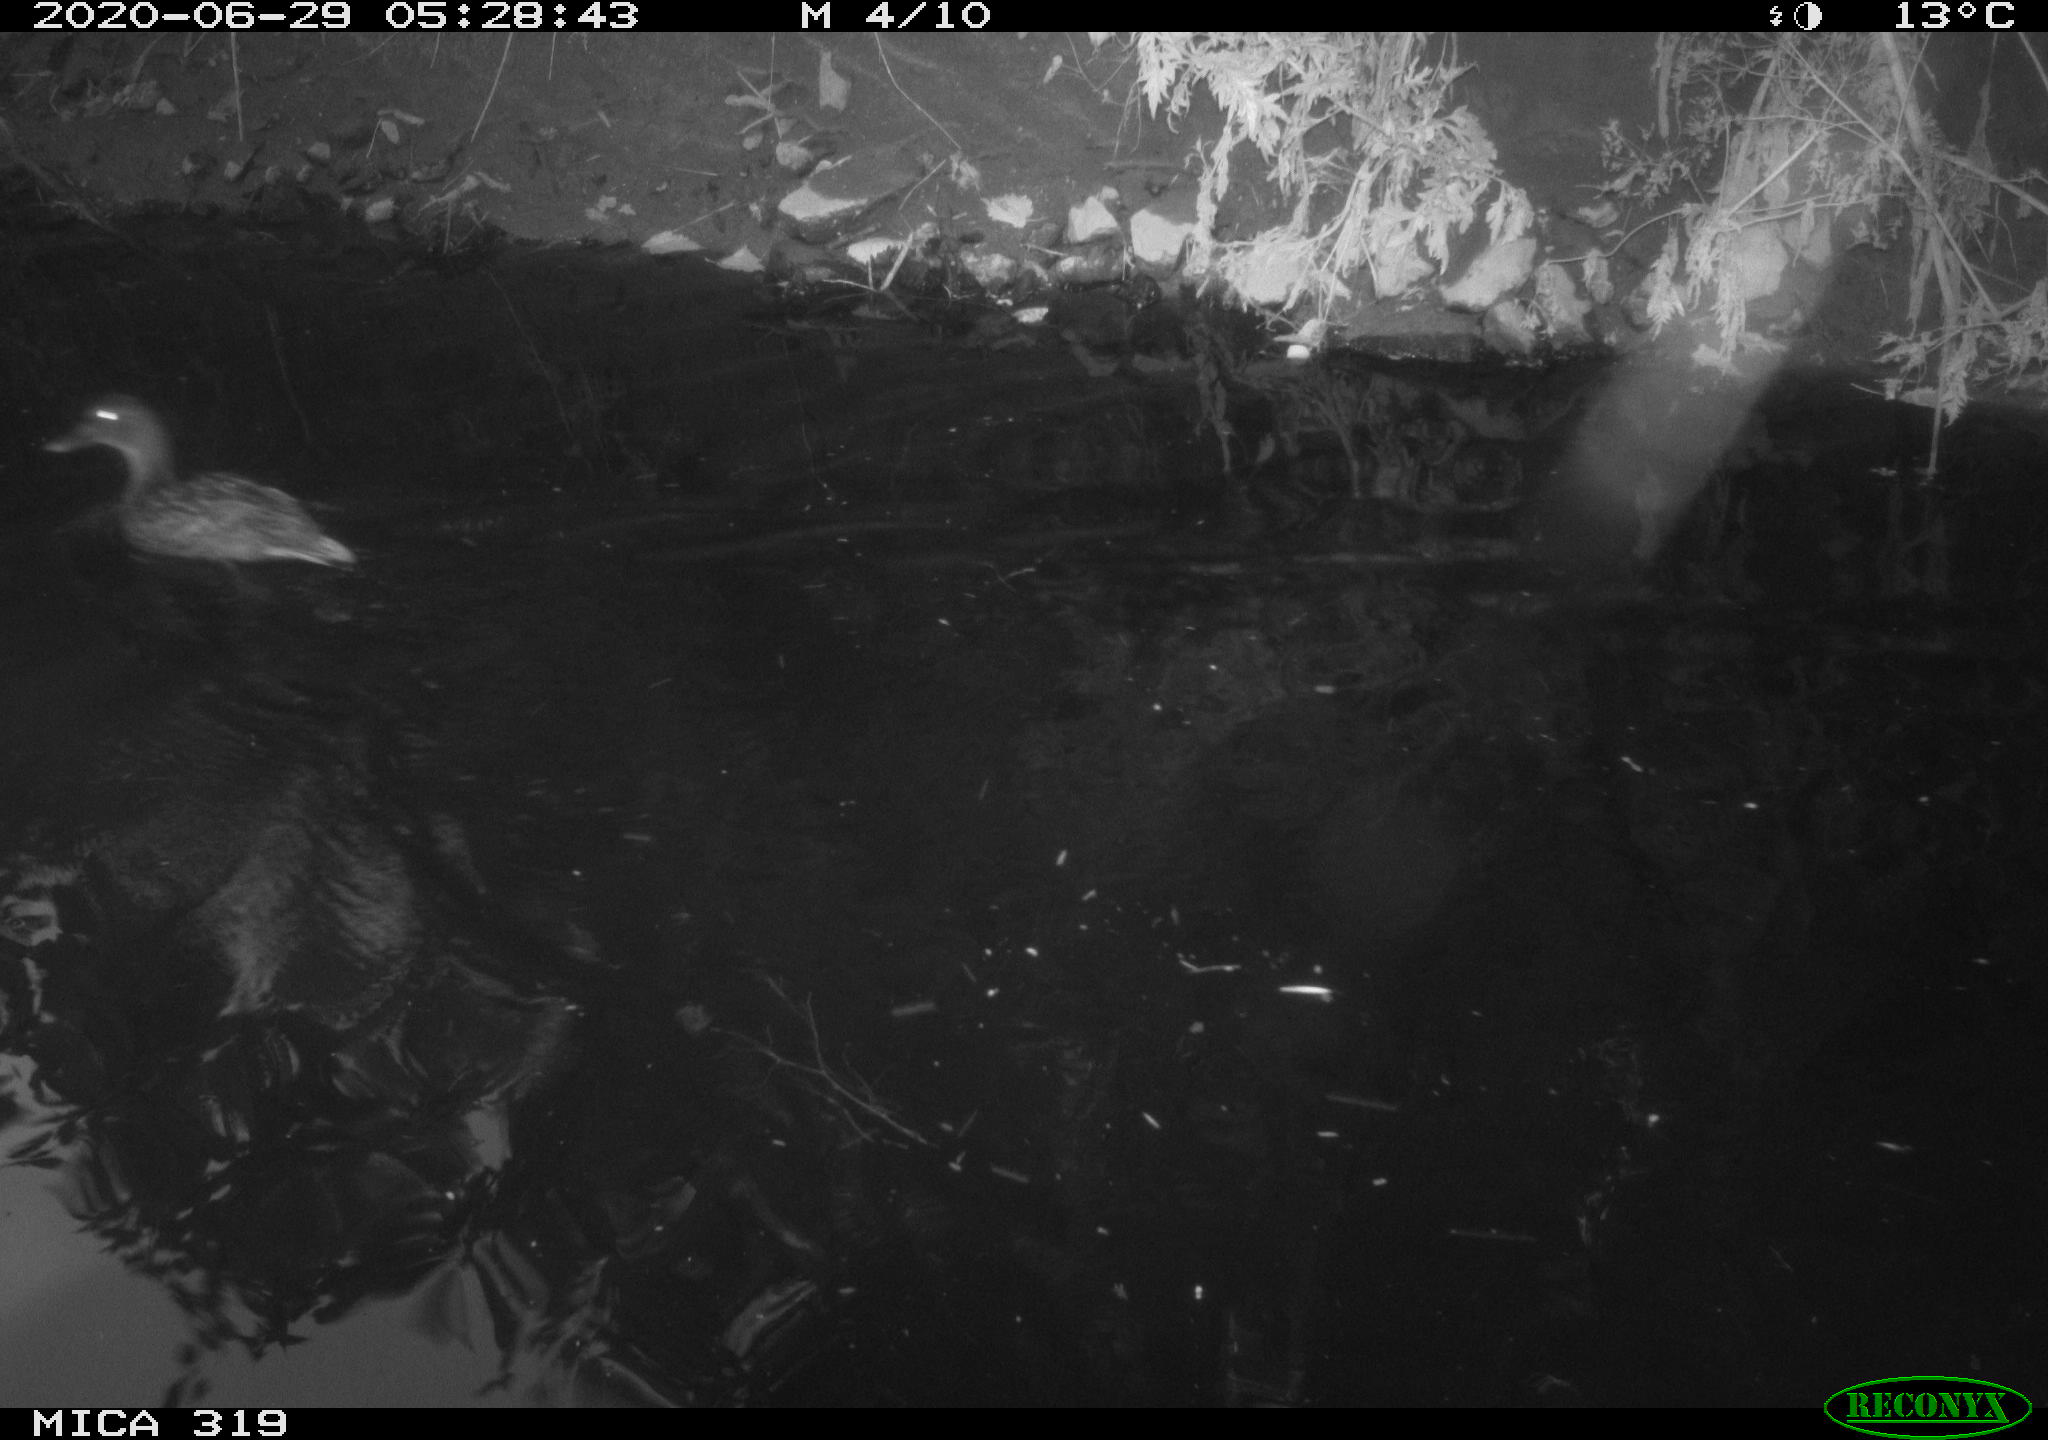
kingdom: Animalia
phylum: Chordata
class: Aves
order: Anseriformes
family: Anatidae
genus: Anas
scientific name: Anas platyrhynchos
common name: Mallard
